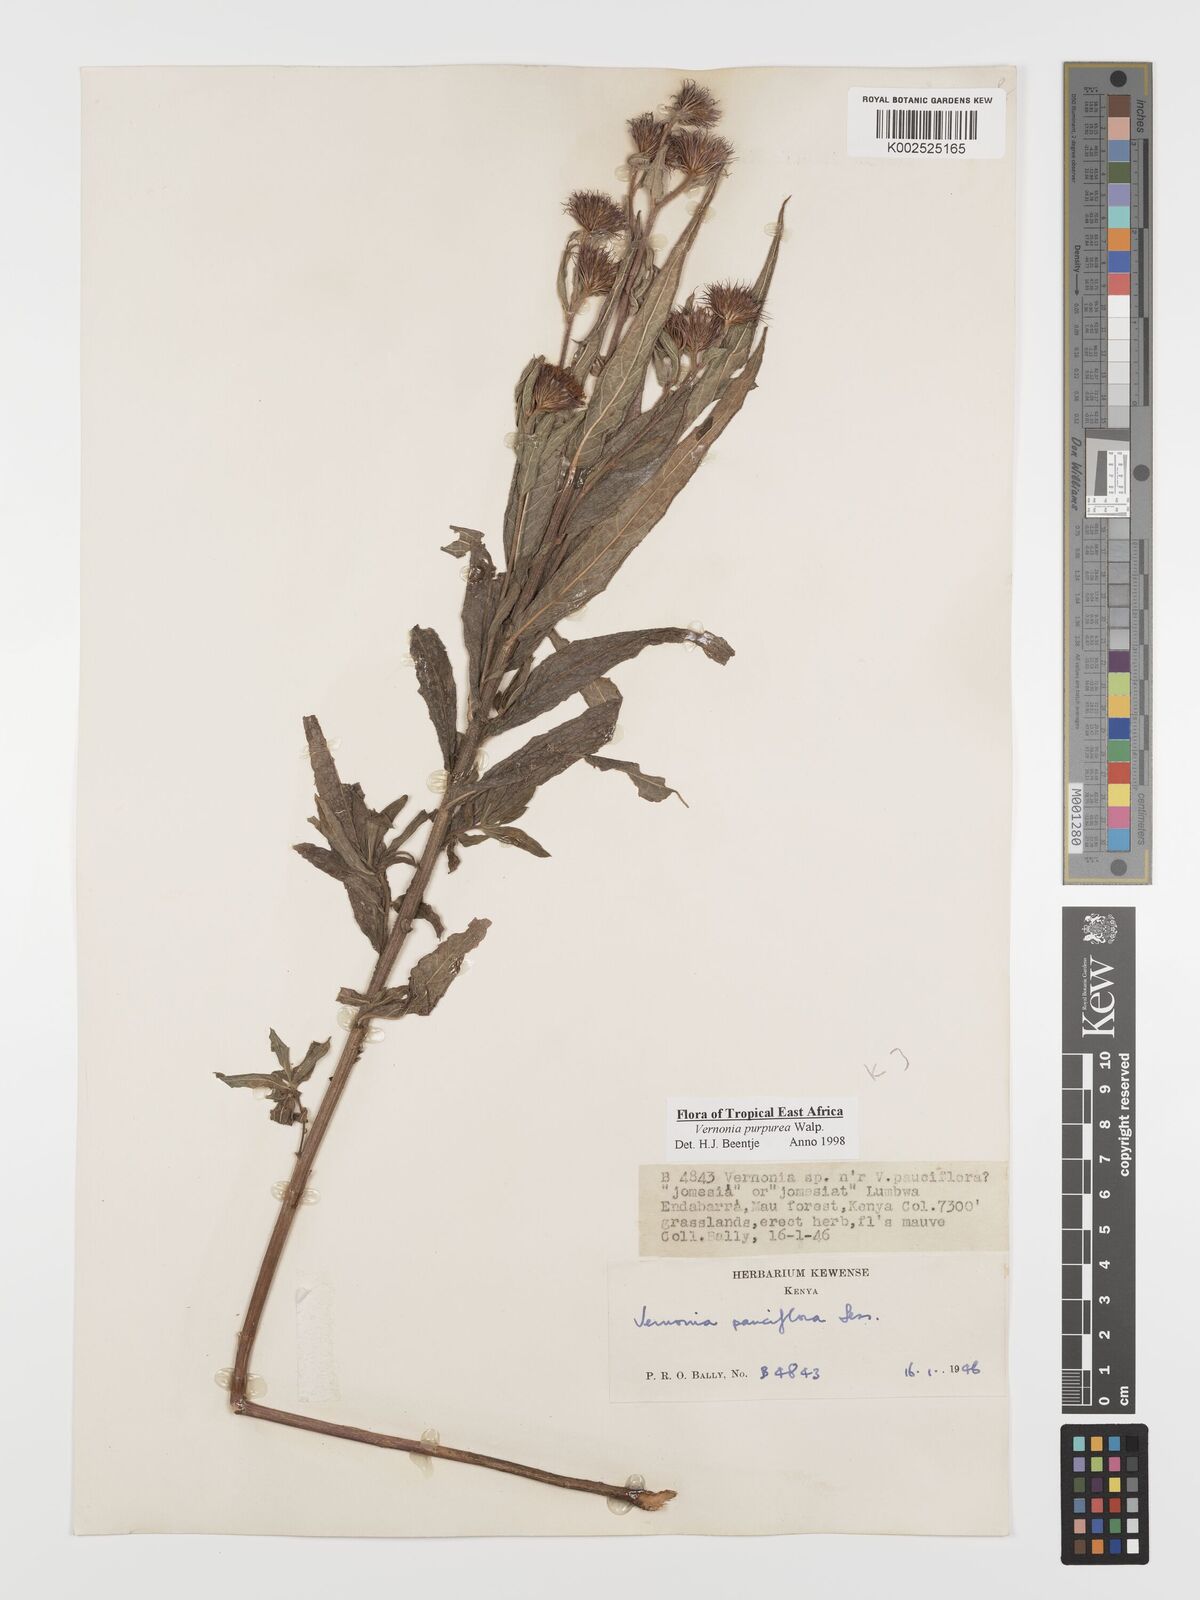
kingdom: Plantae
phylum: Tracheophyta
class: Magnoliopsida
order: Asterales
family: Asteraceae
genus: Nothovernonia
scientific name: Nothovernonia purpurea
